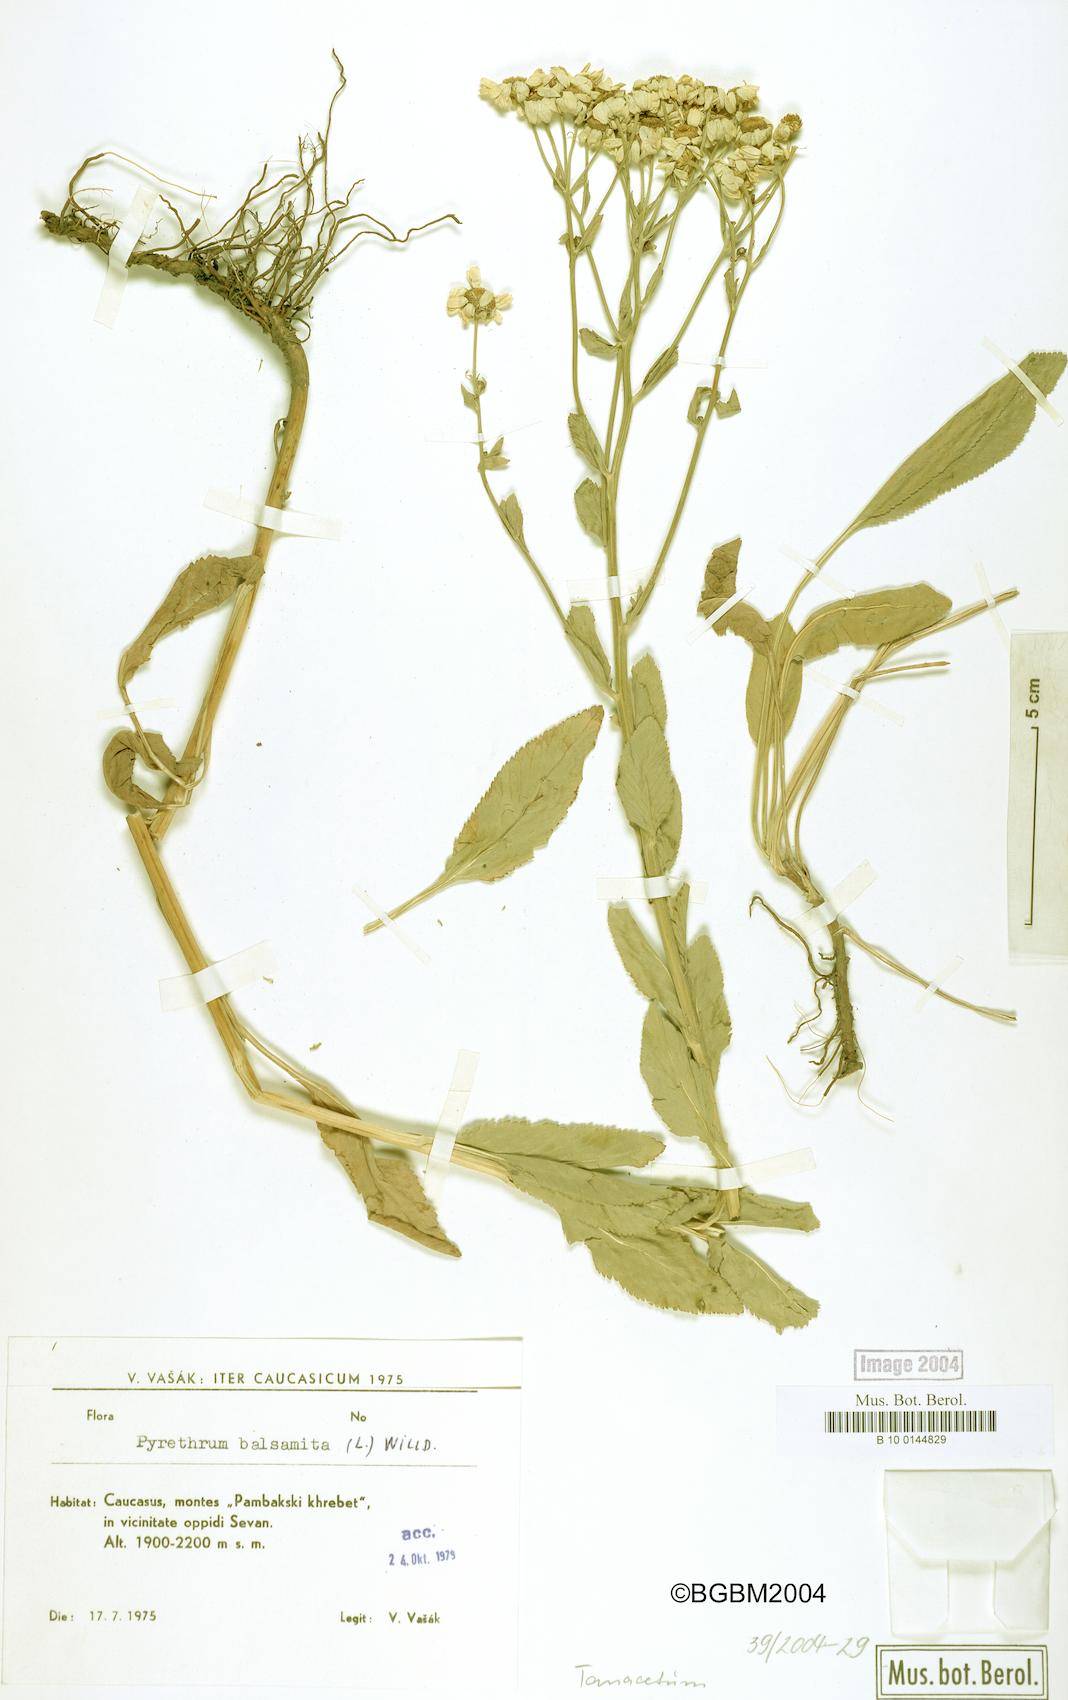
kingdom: Plantae
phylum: Tracheophyta
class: Magnoliopsida
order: Asterales
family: Asteraceae
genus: Tanacetum
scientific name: Tanacetum balsamita
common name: Costmary
